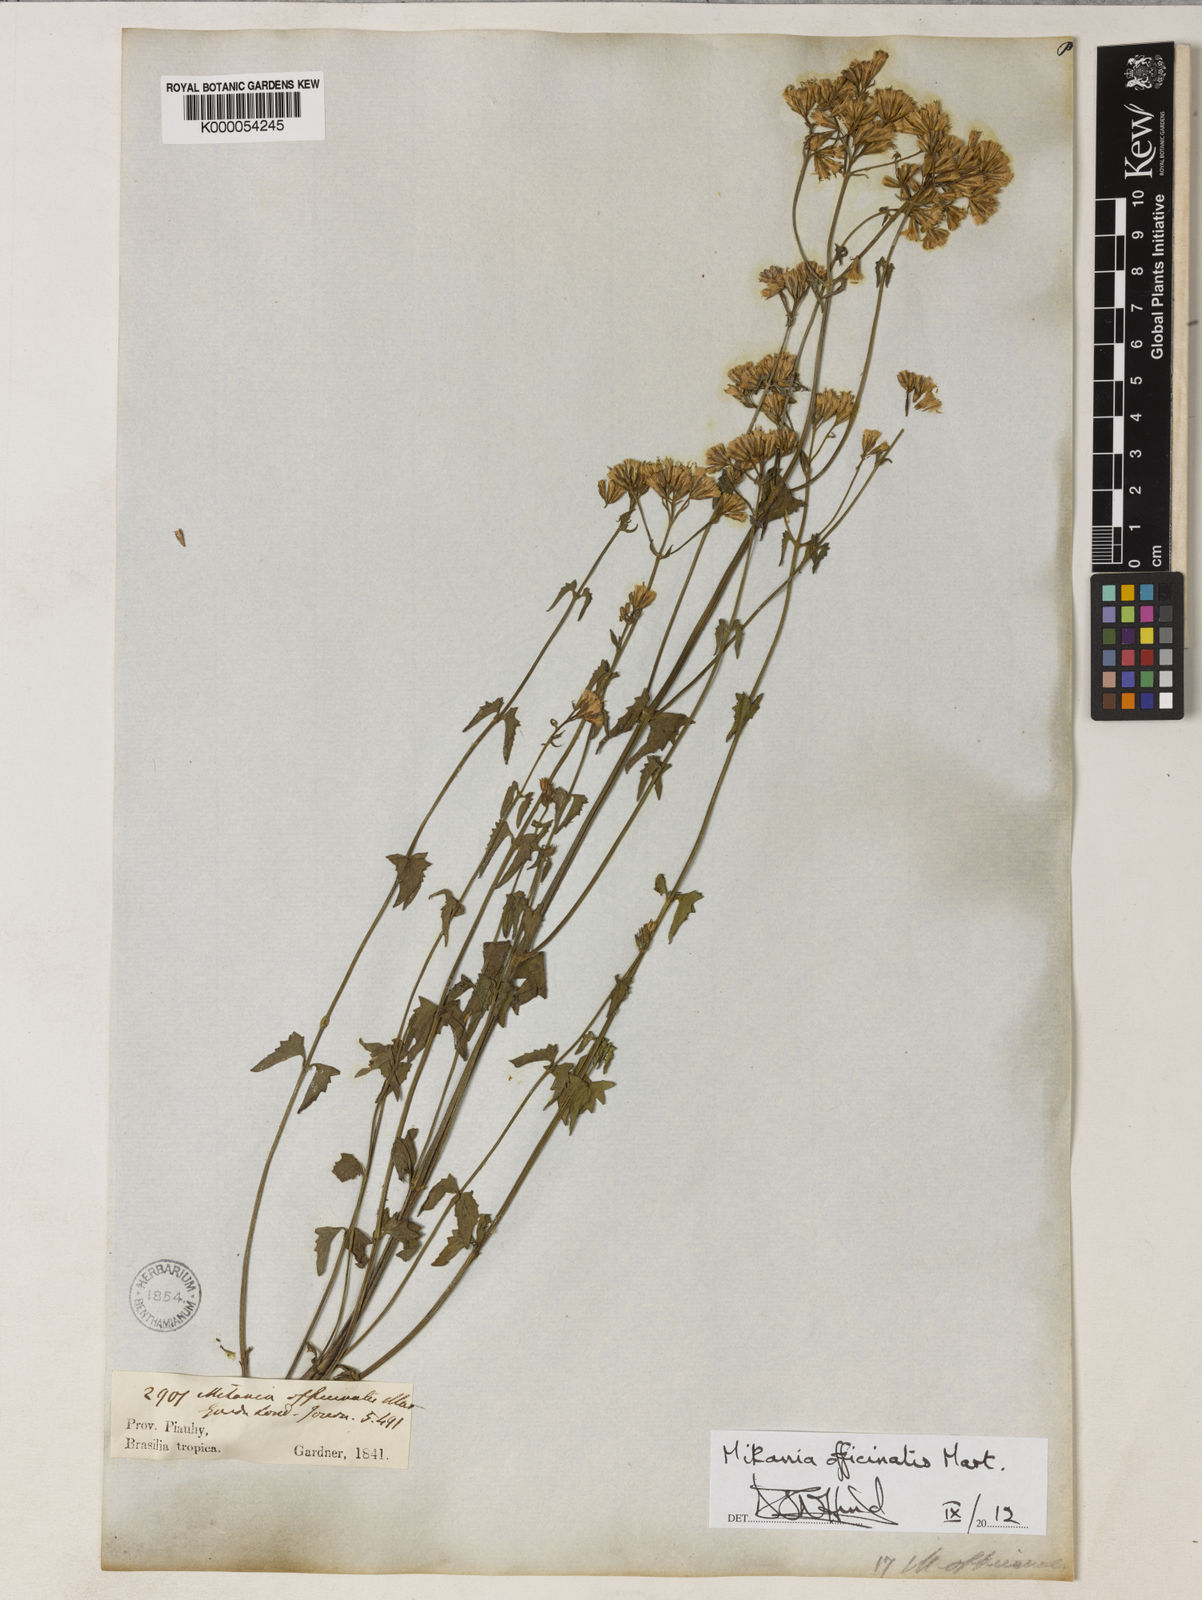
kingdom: Plantae
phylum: Tracheophyta
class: Magnoliopsida
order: Asterales
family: Asteraceae
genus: Mikania
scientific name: Mikania officinalis
